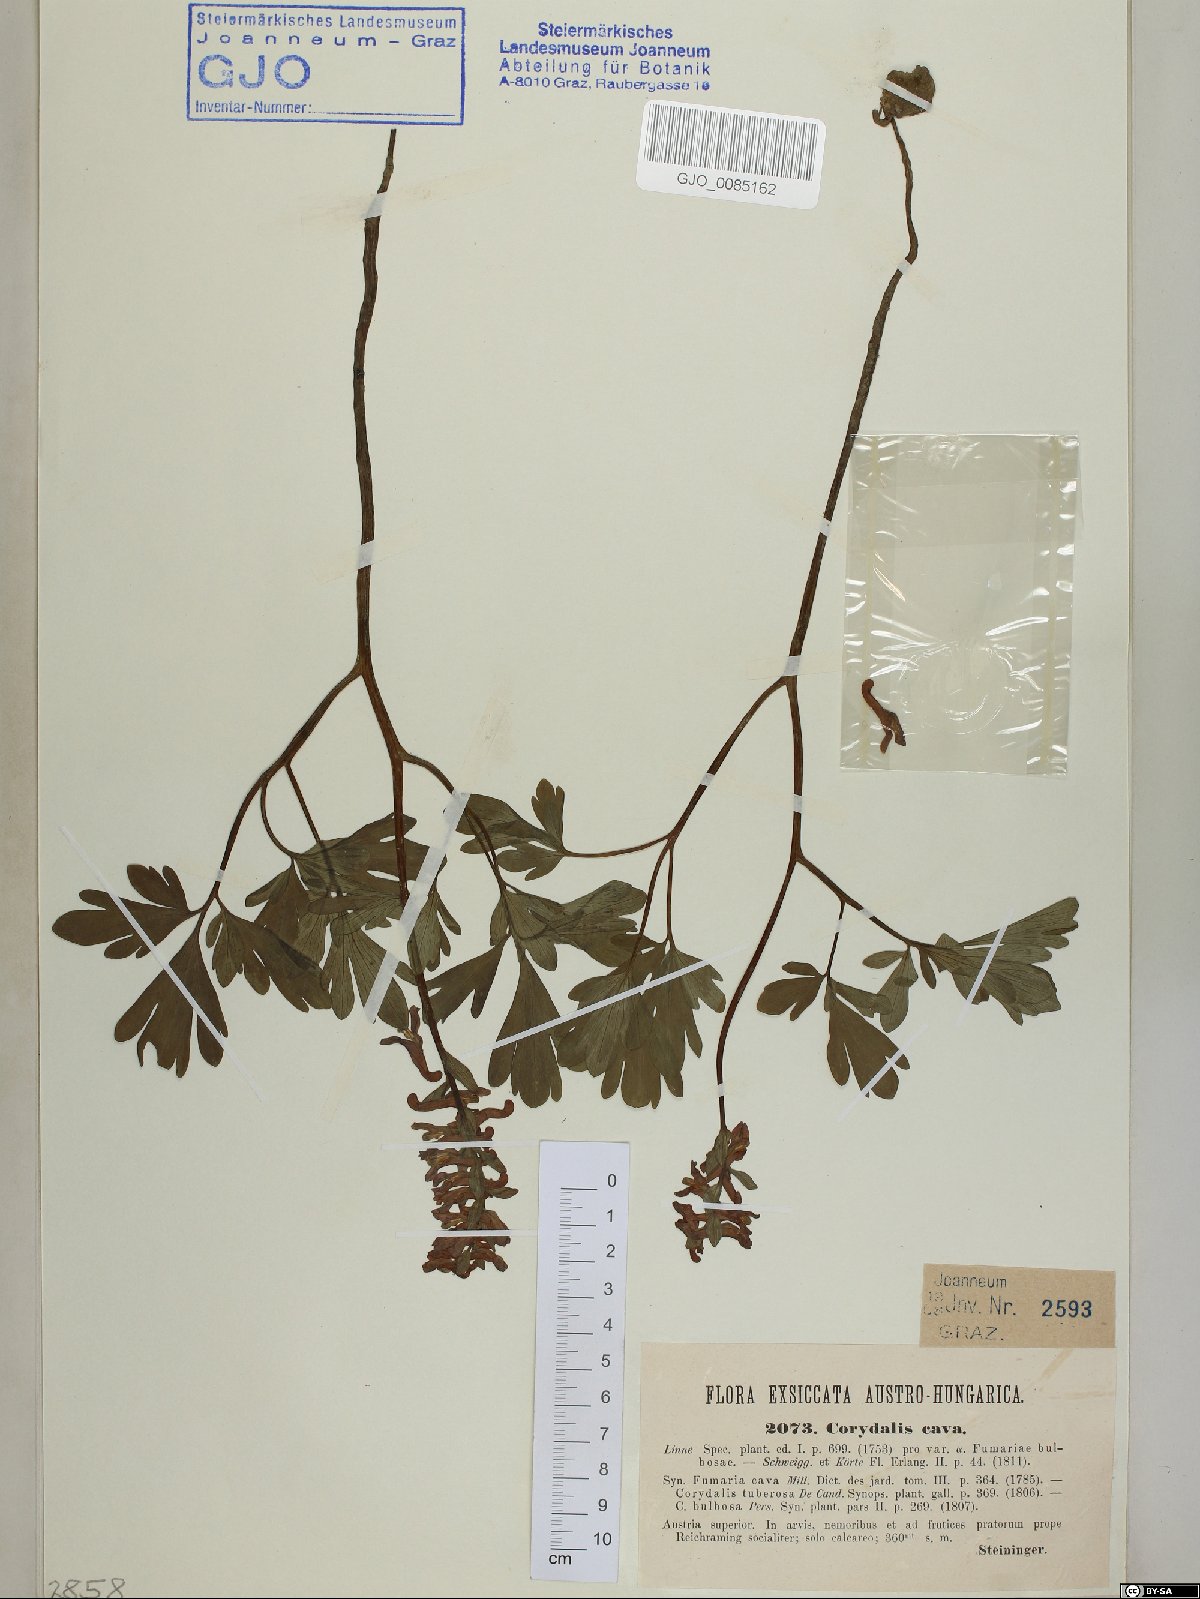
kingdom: Plantae
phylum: Tracheophyta
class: Magnoliopsida
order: Ranunculales
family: Papaveraceae
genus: Corydalis
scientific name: Corydalis cava
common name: Hollowroot
